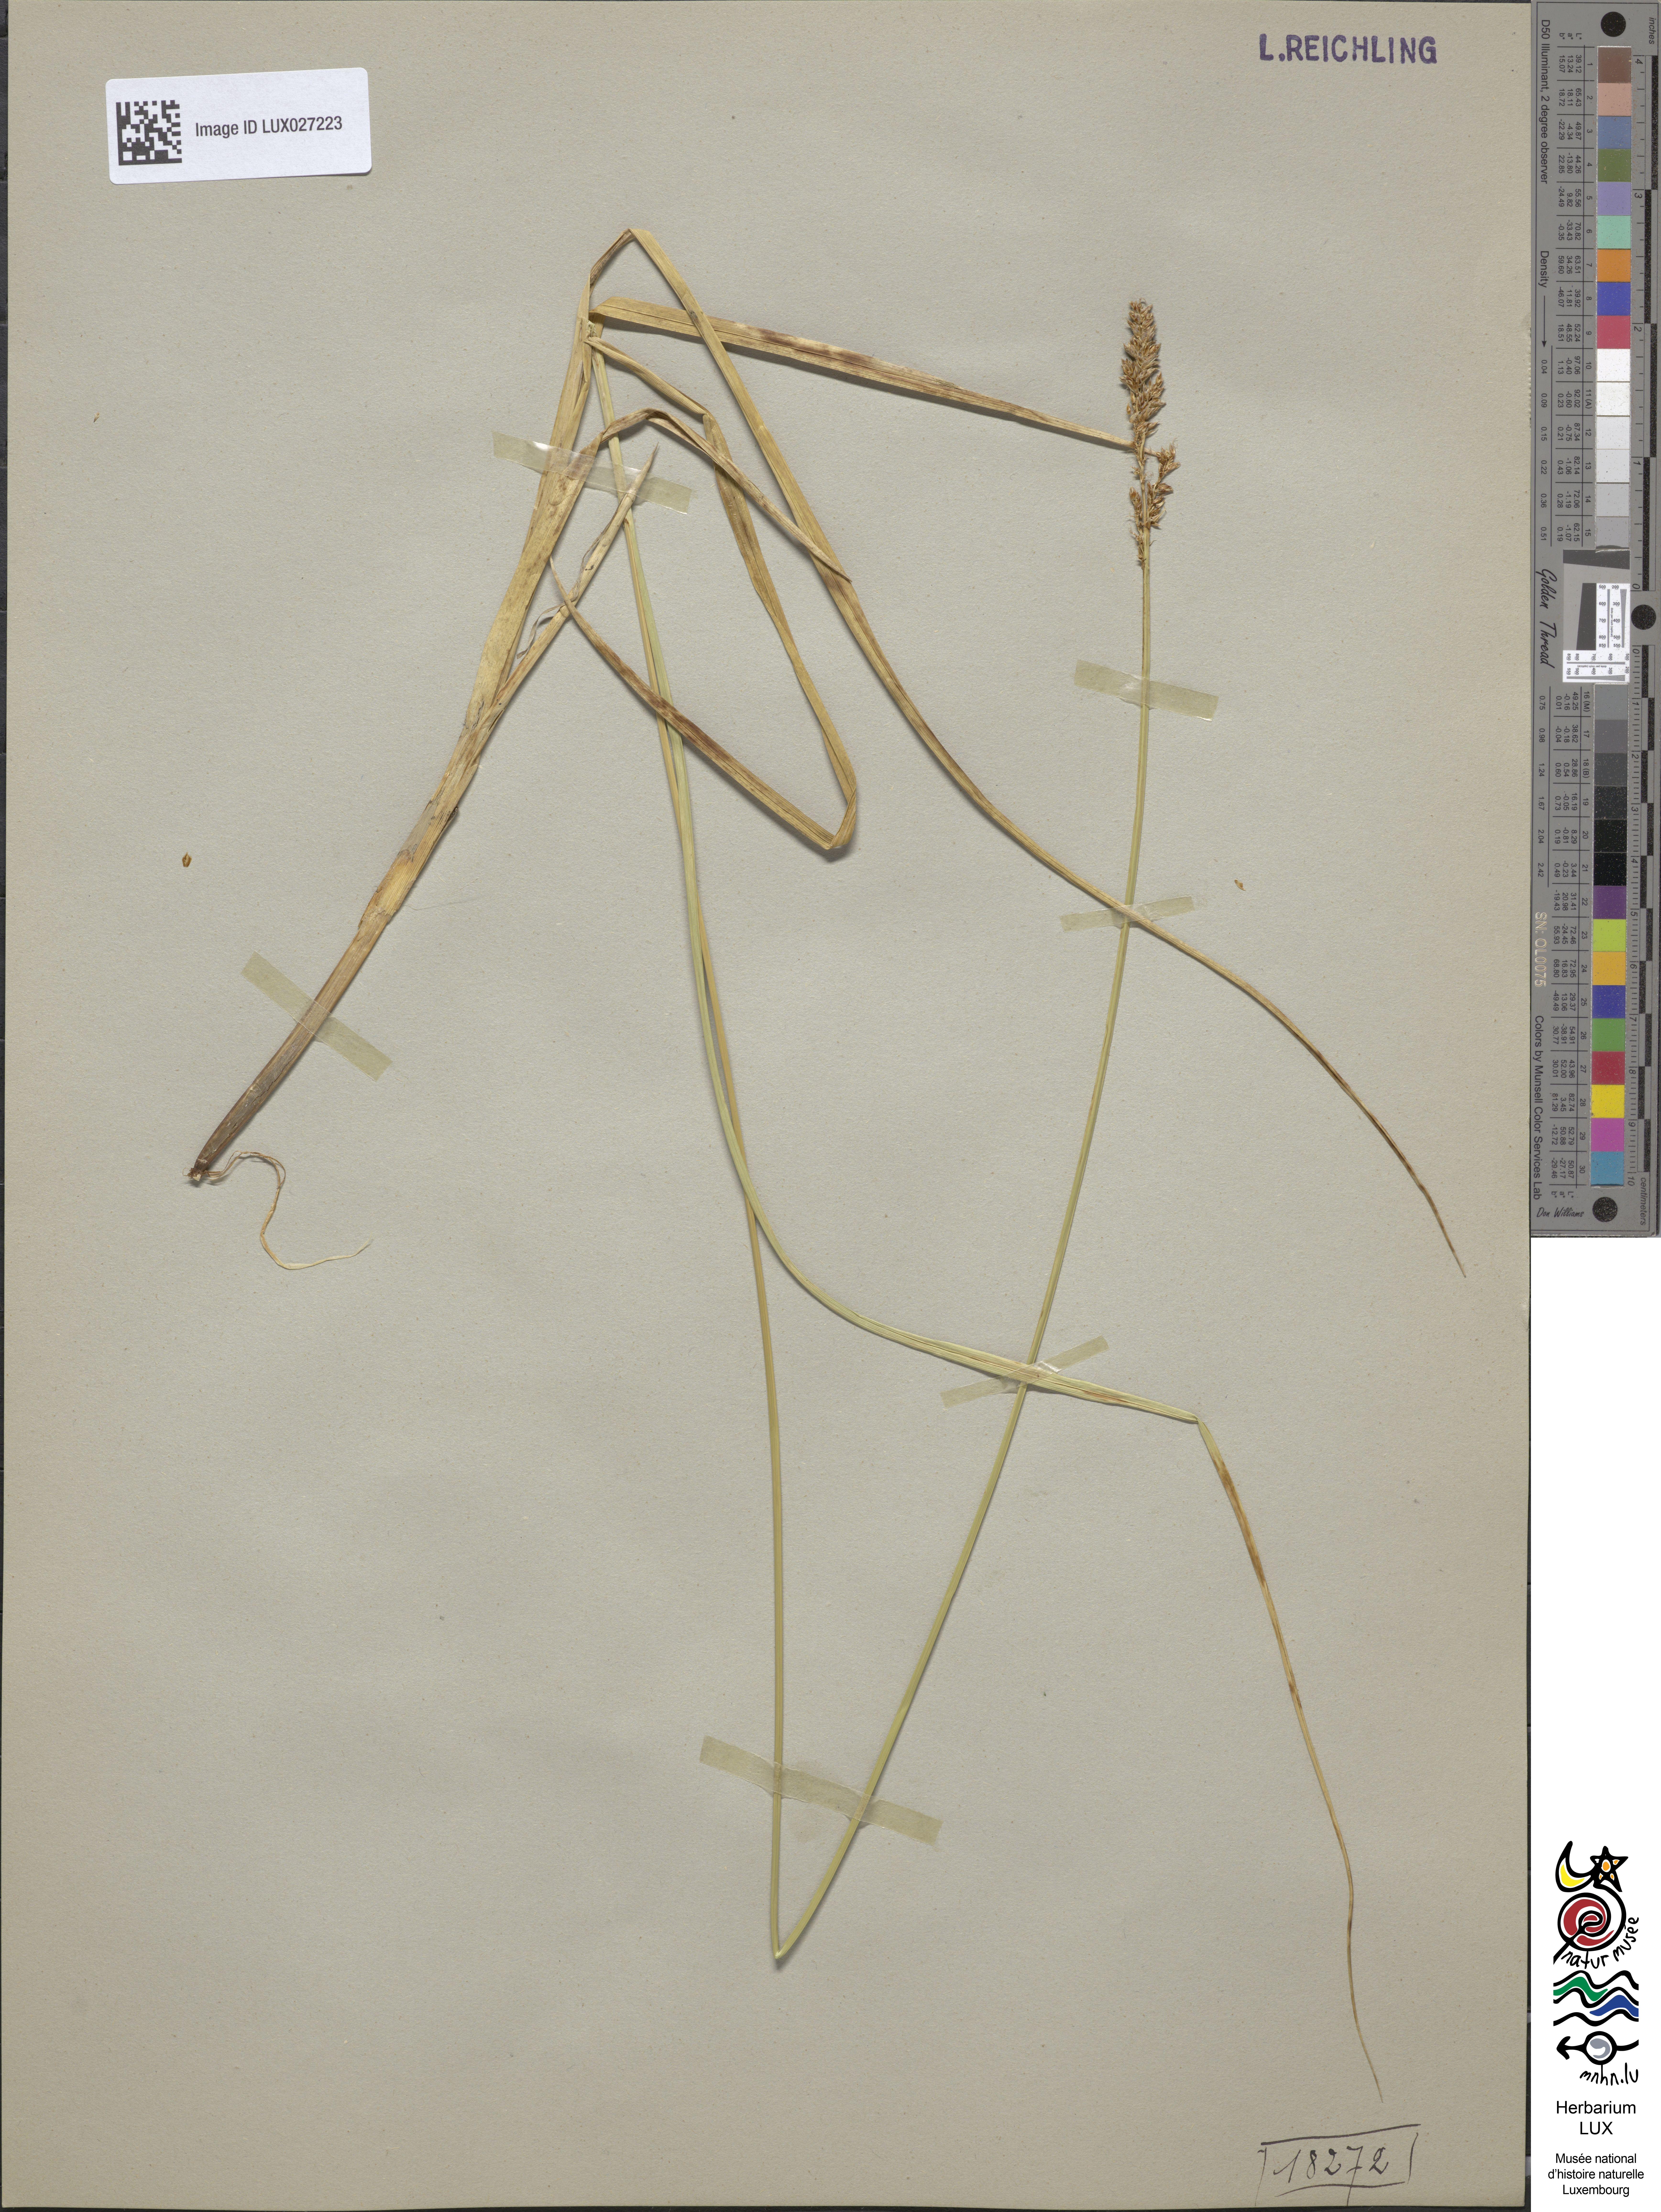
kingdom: Plantae
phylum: Tracheophyta
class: Liliopsida
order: Poales
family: Cyperaceae
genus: Carex
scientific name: Carex paniculata
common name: Greater tussock-sedge
